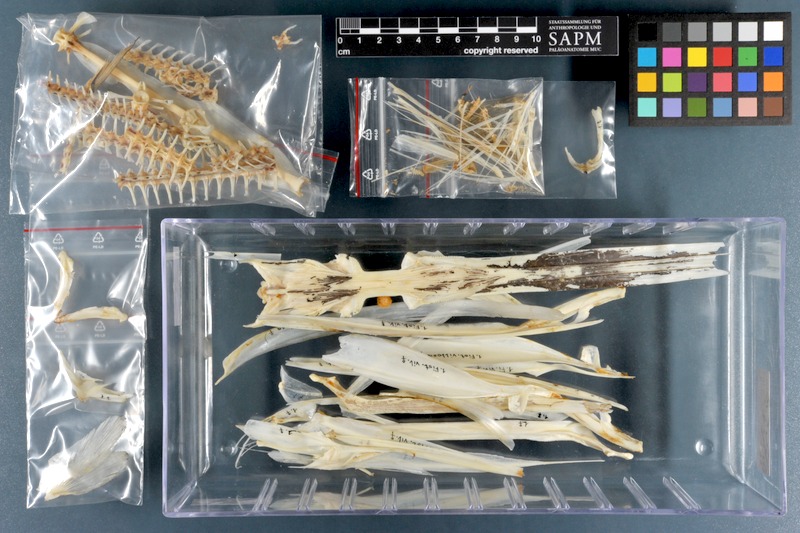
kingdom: Animalia
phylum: Chordata
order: Syngnathiformes
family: Fistulariidae
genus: Fistularia
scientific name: Fistularia petimba
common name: Red cornetfish
